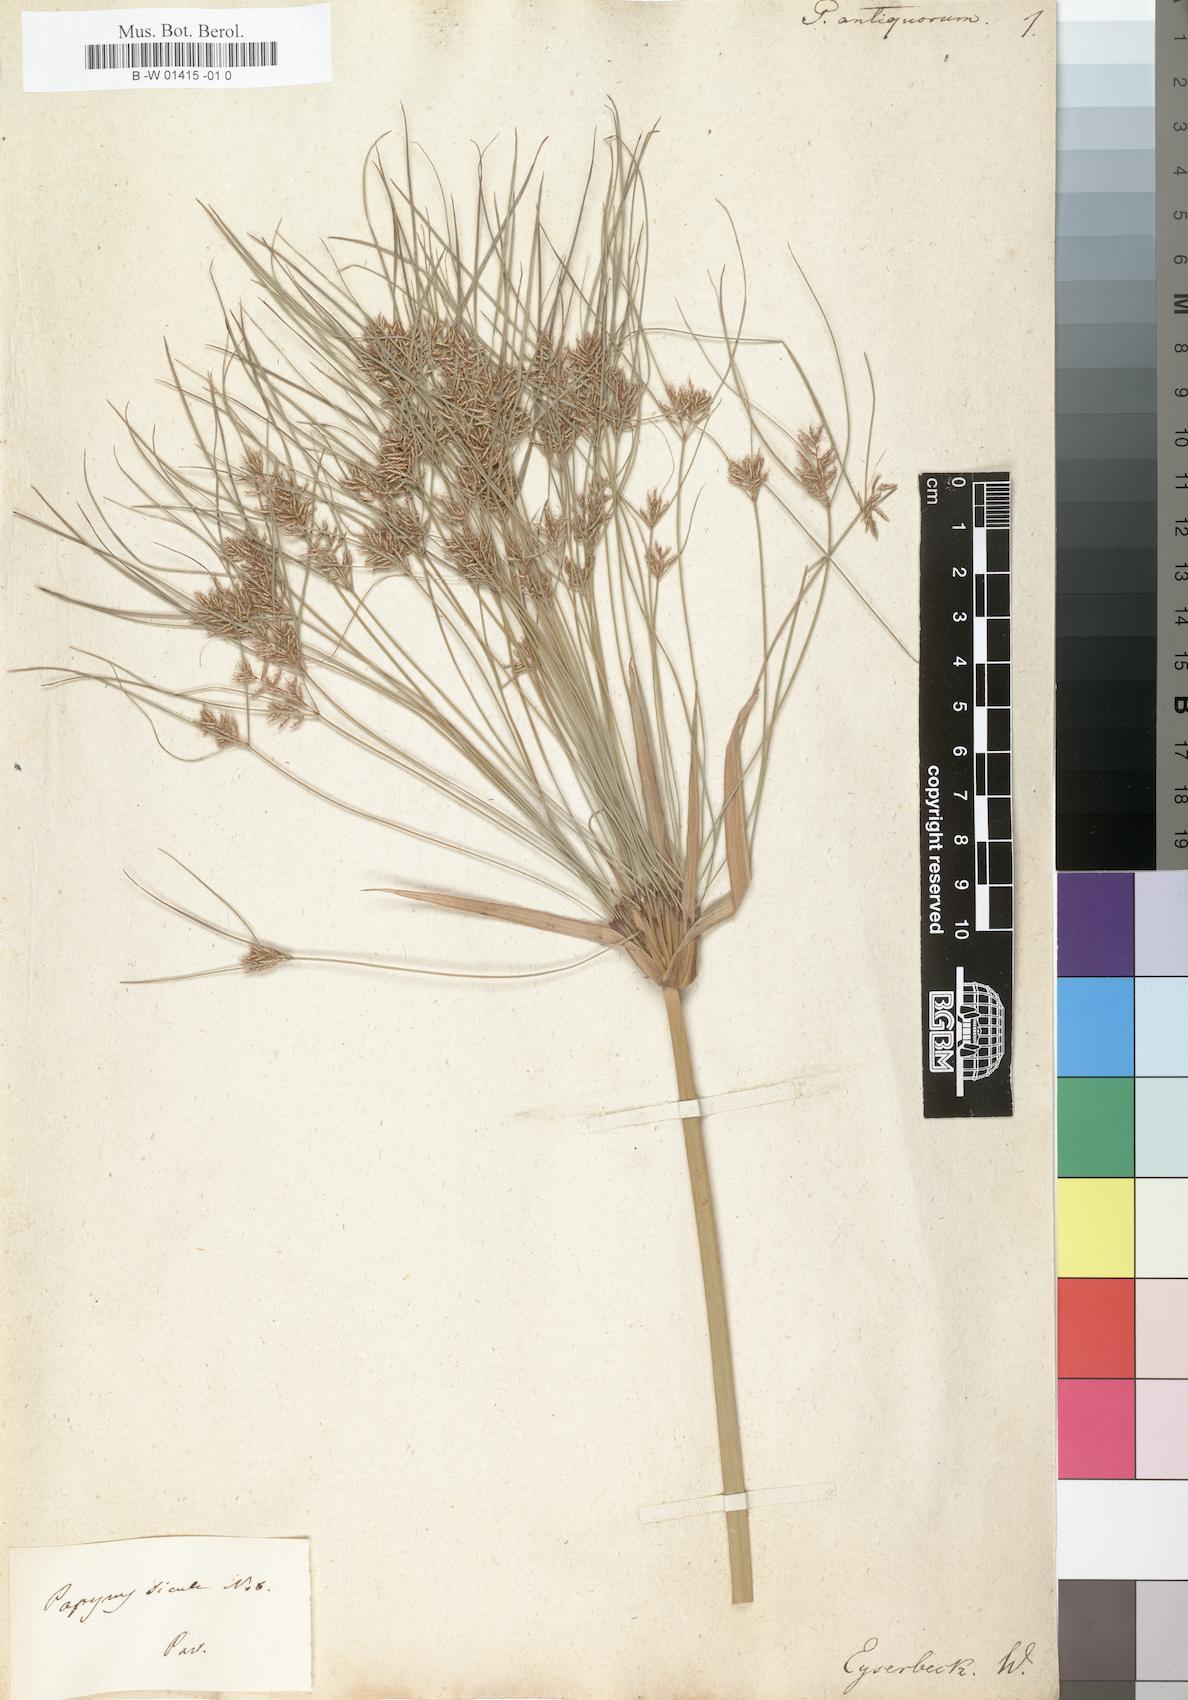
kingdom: Plantae
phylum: Tracheophyta
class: Liliopsida
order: Poales
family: Cyperaceae
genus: Cyperus
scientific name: Cyperus papyrus
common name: Papyrus
